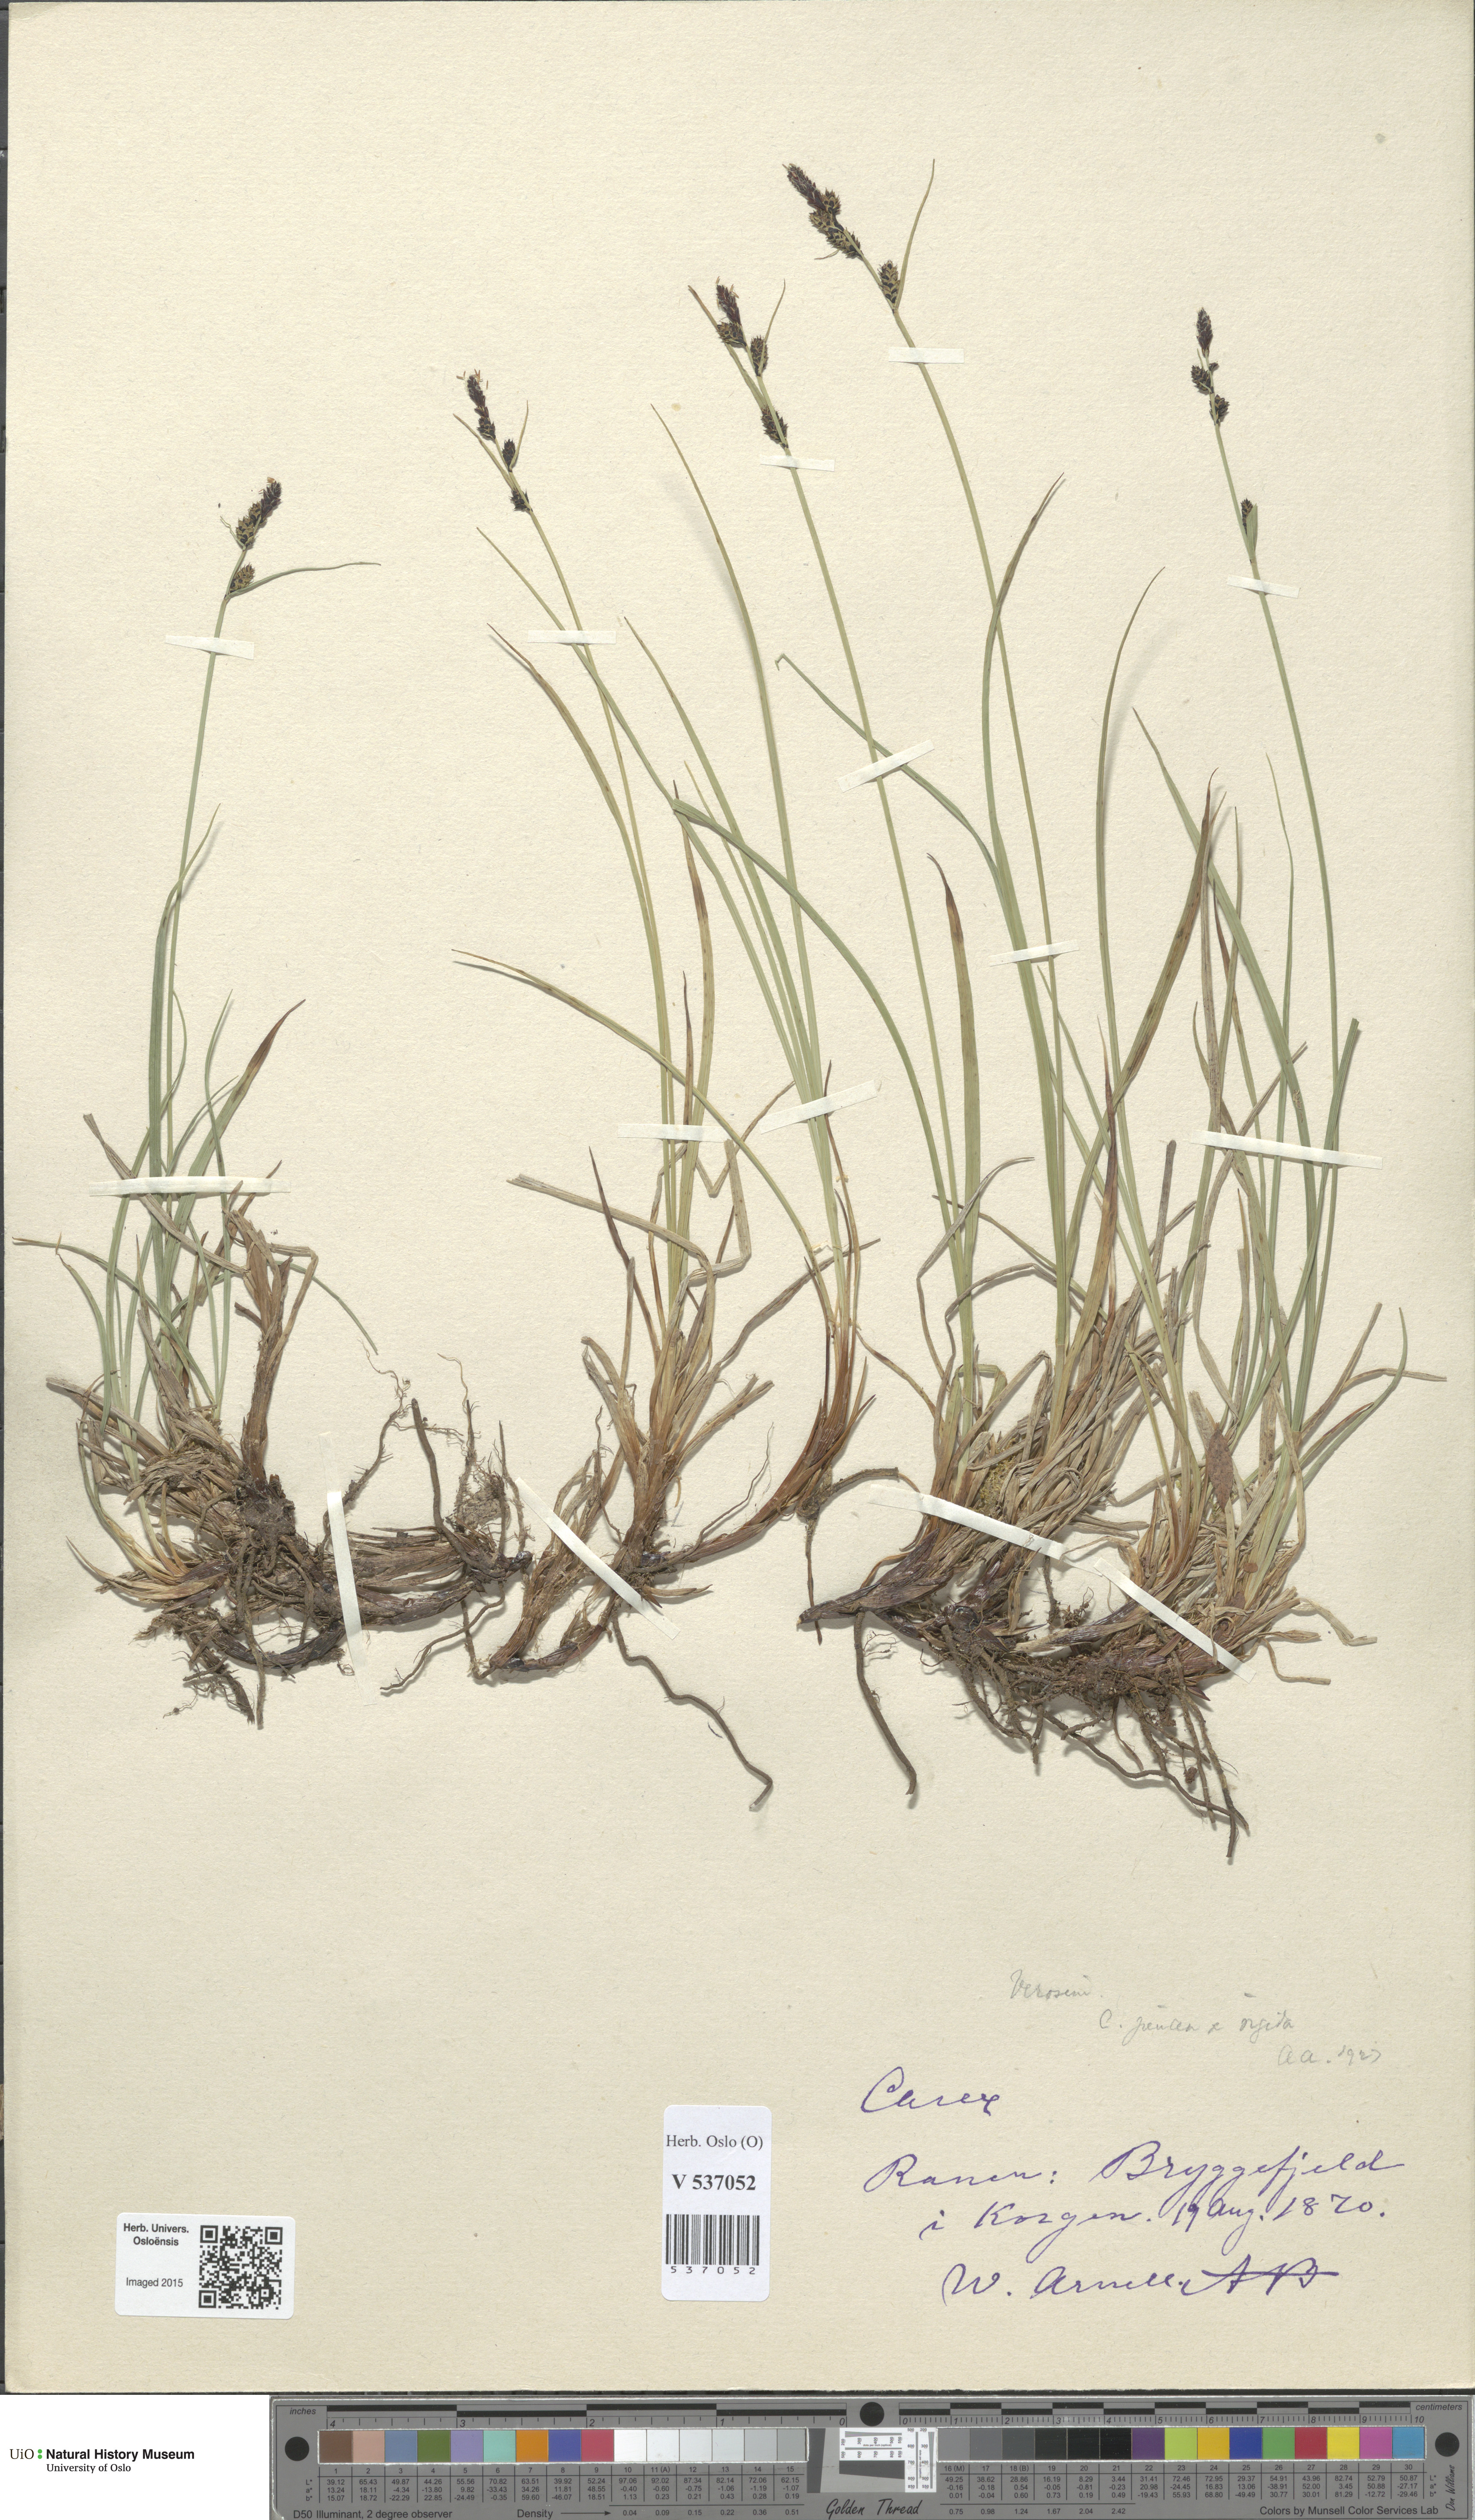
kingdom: Plantae
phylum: Tracheophyta
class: Liliopsida
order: Poales
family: Cyperaceae
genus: Carex
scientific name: Carex
